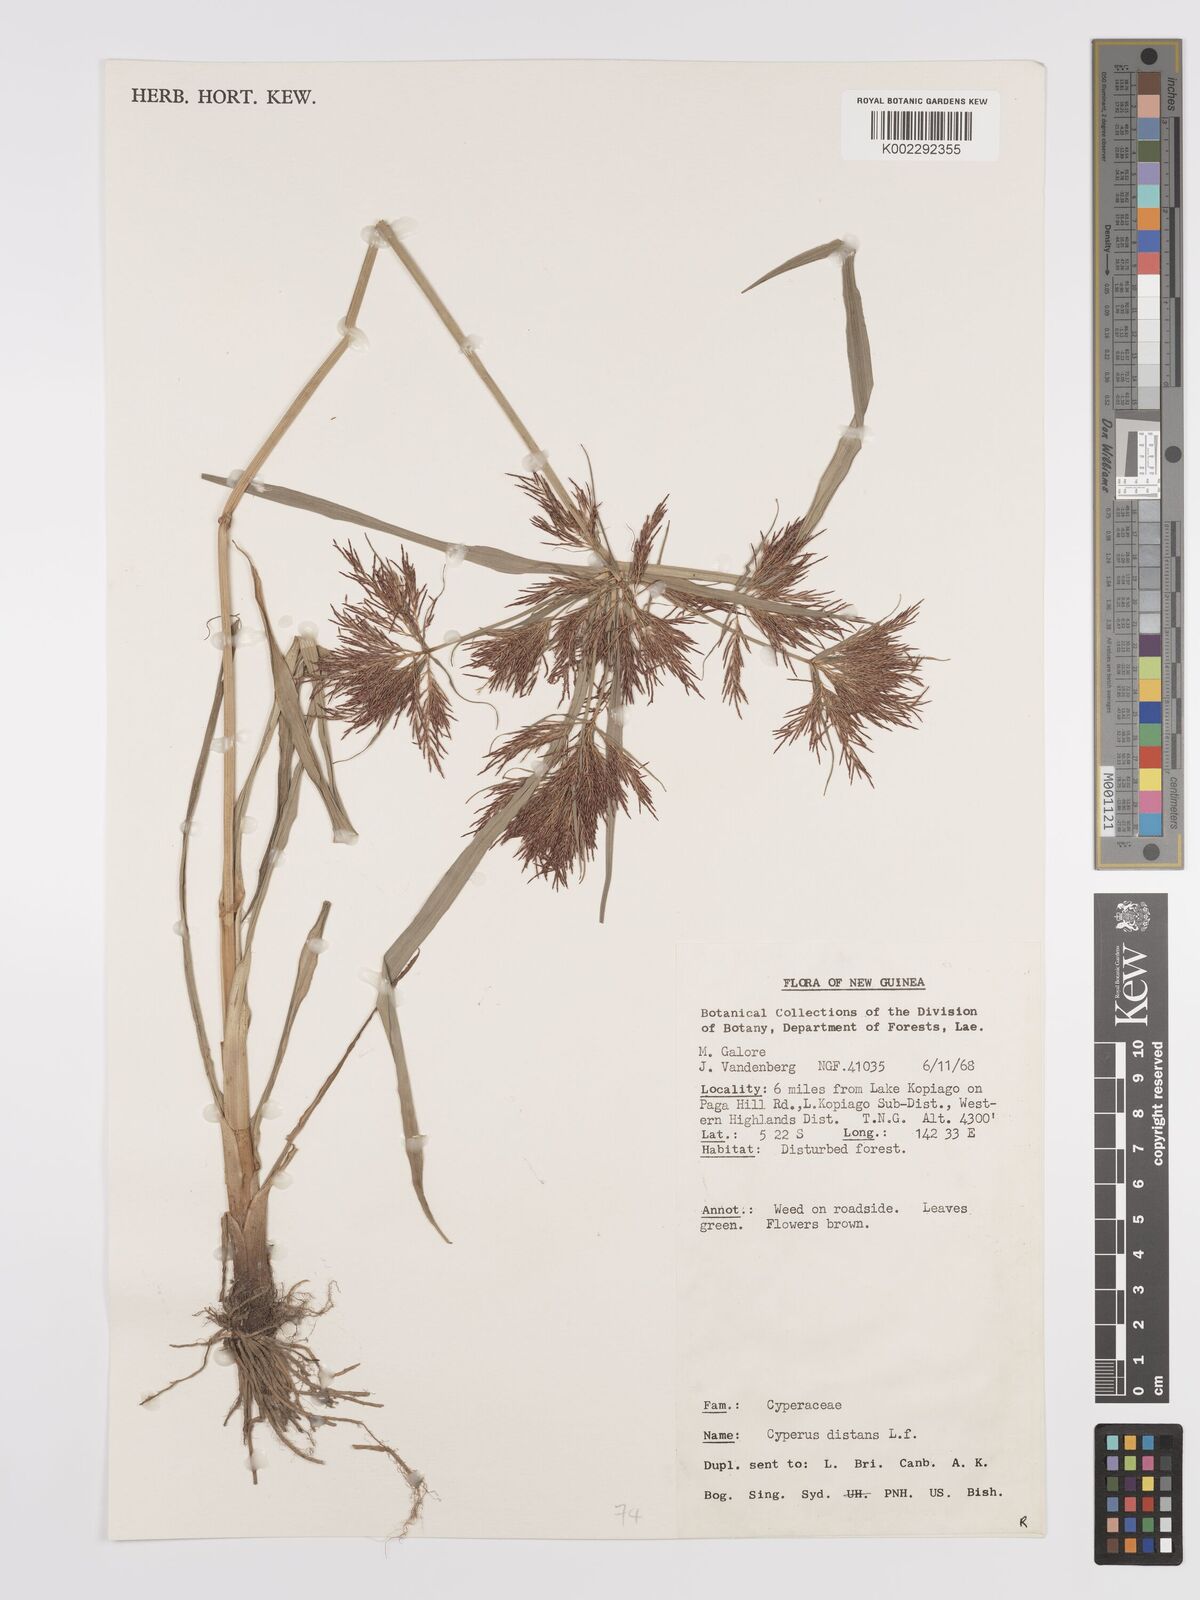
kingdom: Plantae
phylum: Tracheophyta
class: Liliopsida
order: Poales
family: Cyperaceae
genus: Cyperus
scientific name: Cyperus distans
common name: Slender cyperus
